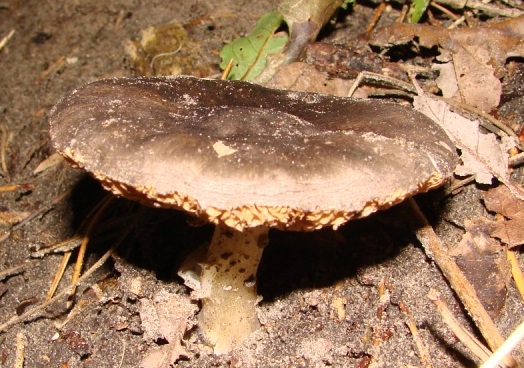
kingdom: Fungi
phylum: Basidiomycota
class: Agaricomycetes
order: Agaricales
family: Pluteaceae
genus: Pluteus
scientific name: Pluteus
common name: gråfibret skærmhat
